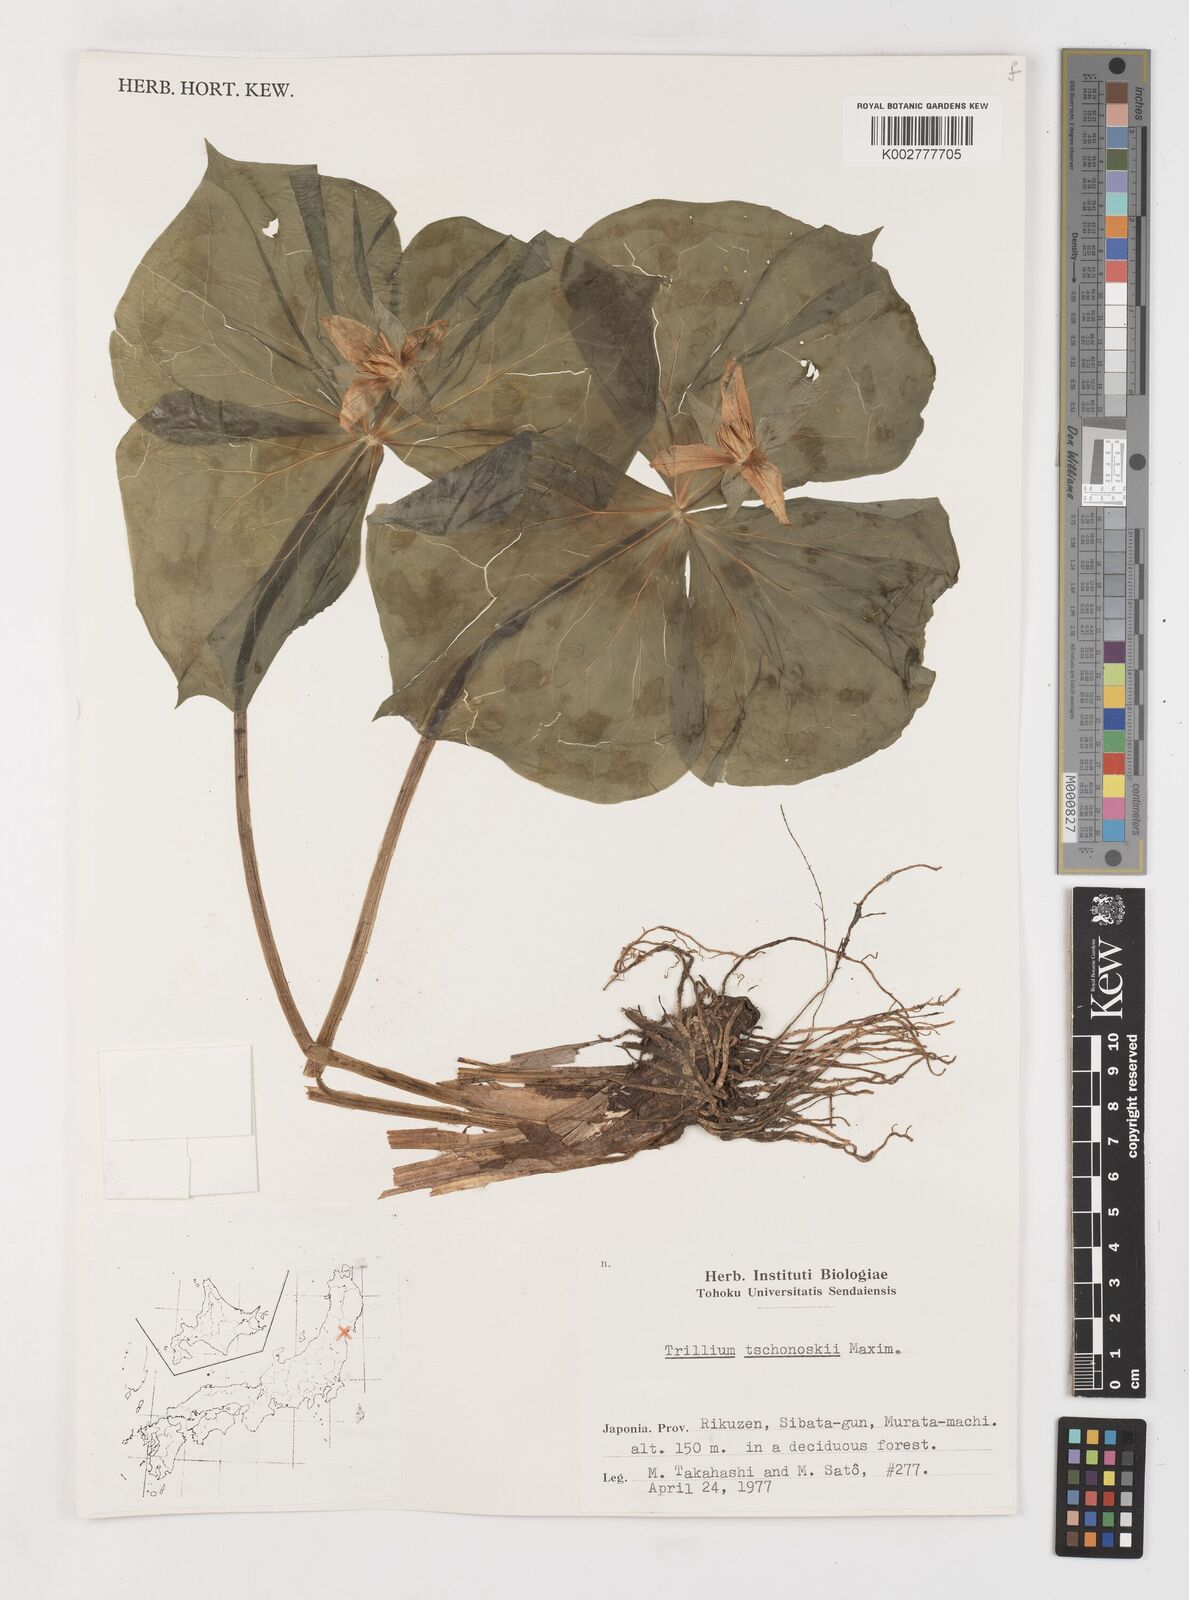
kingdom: Plantae
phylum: Tracheophyta
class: Liliopsida
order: Liliales
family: Melanthiaceae
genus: Trillium
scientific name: Trillium tschonoskii
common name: A pearl on head
